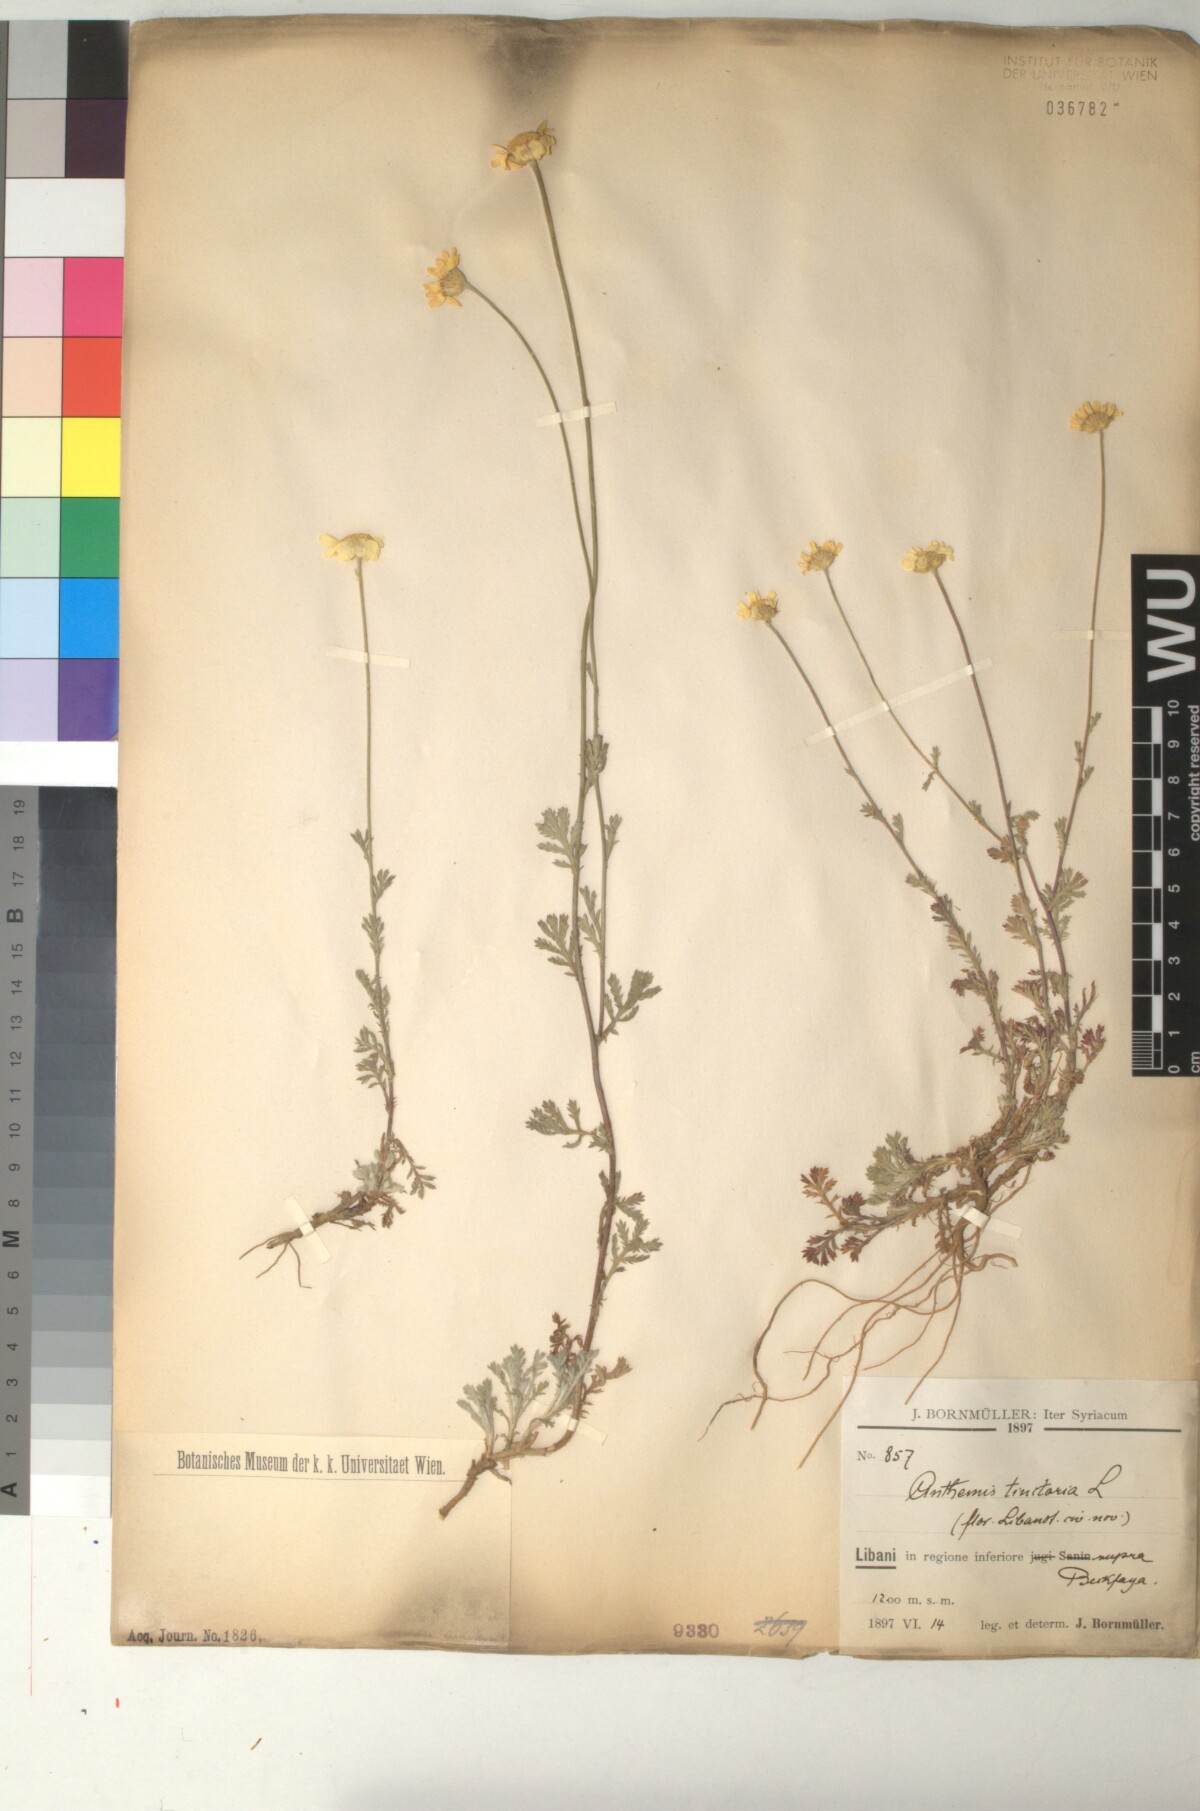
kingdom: Plantae
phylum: Tracheophyta
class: Magnoliopsida
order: Asterales
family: Asteraceae
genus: Cota
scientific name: Cota tinctoria
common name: Golden chamomile
